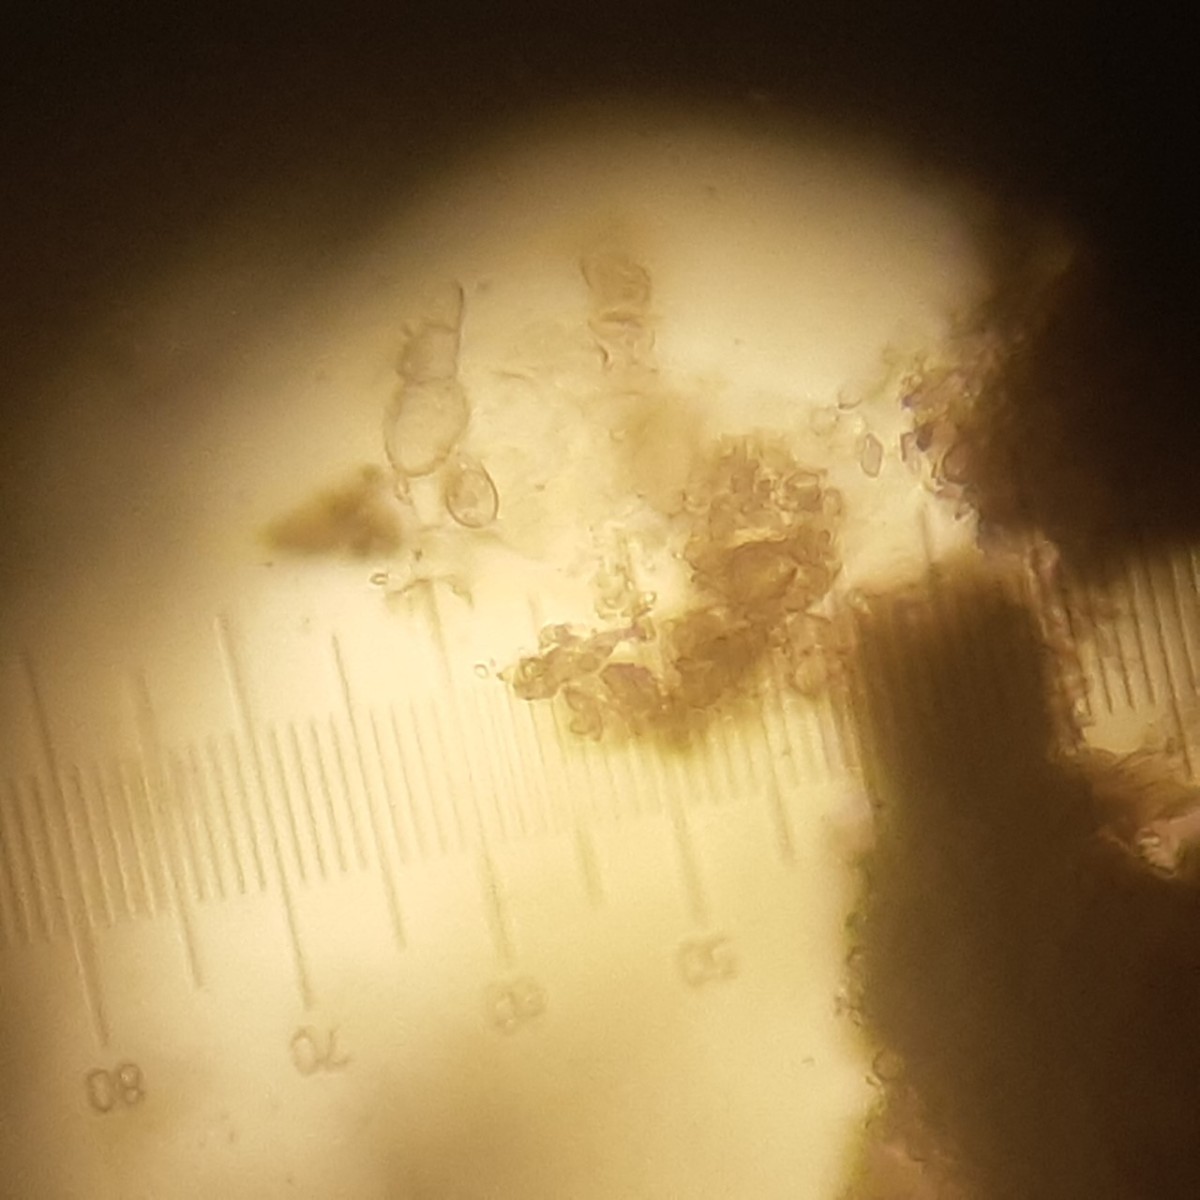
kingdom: Fungi
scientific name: Fungi
